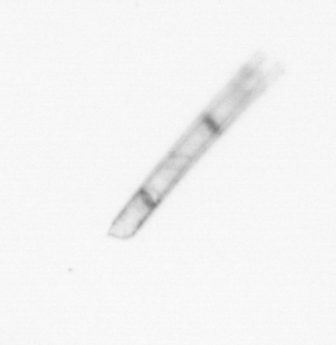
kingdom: Chromista
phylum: Ochrophyta
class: Bacillariophyceae
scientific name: Bacillariophyceae
